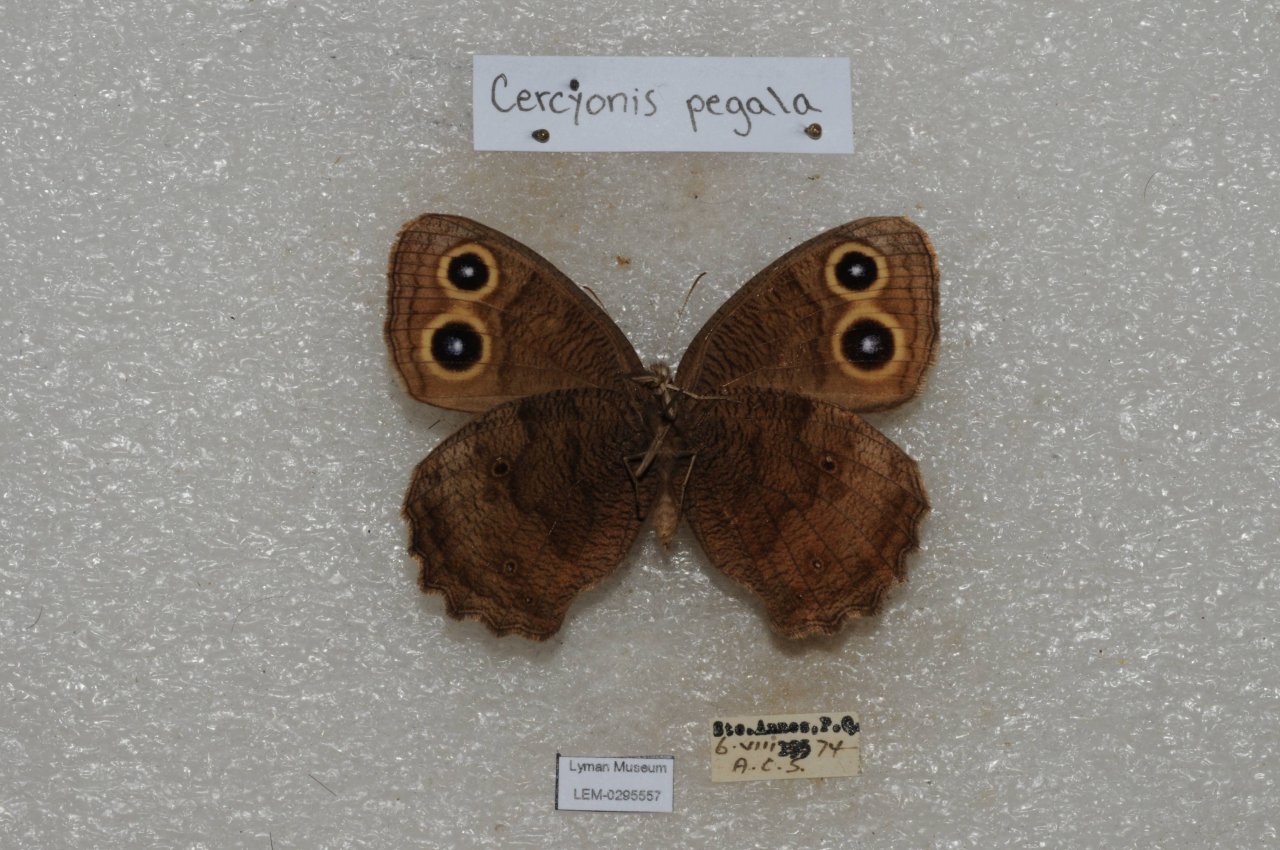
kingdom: Animalia
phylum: Arthropoda
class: Insecta
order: Lepidoptera
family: Nymphalidae
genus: Cercyonis
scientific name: Cercyonis pegala
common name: Common Wood-Nymph
